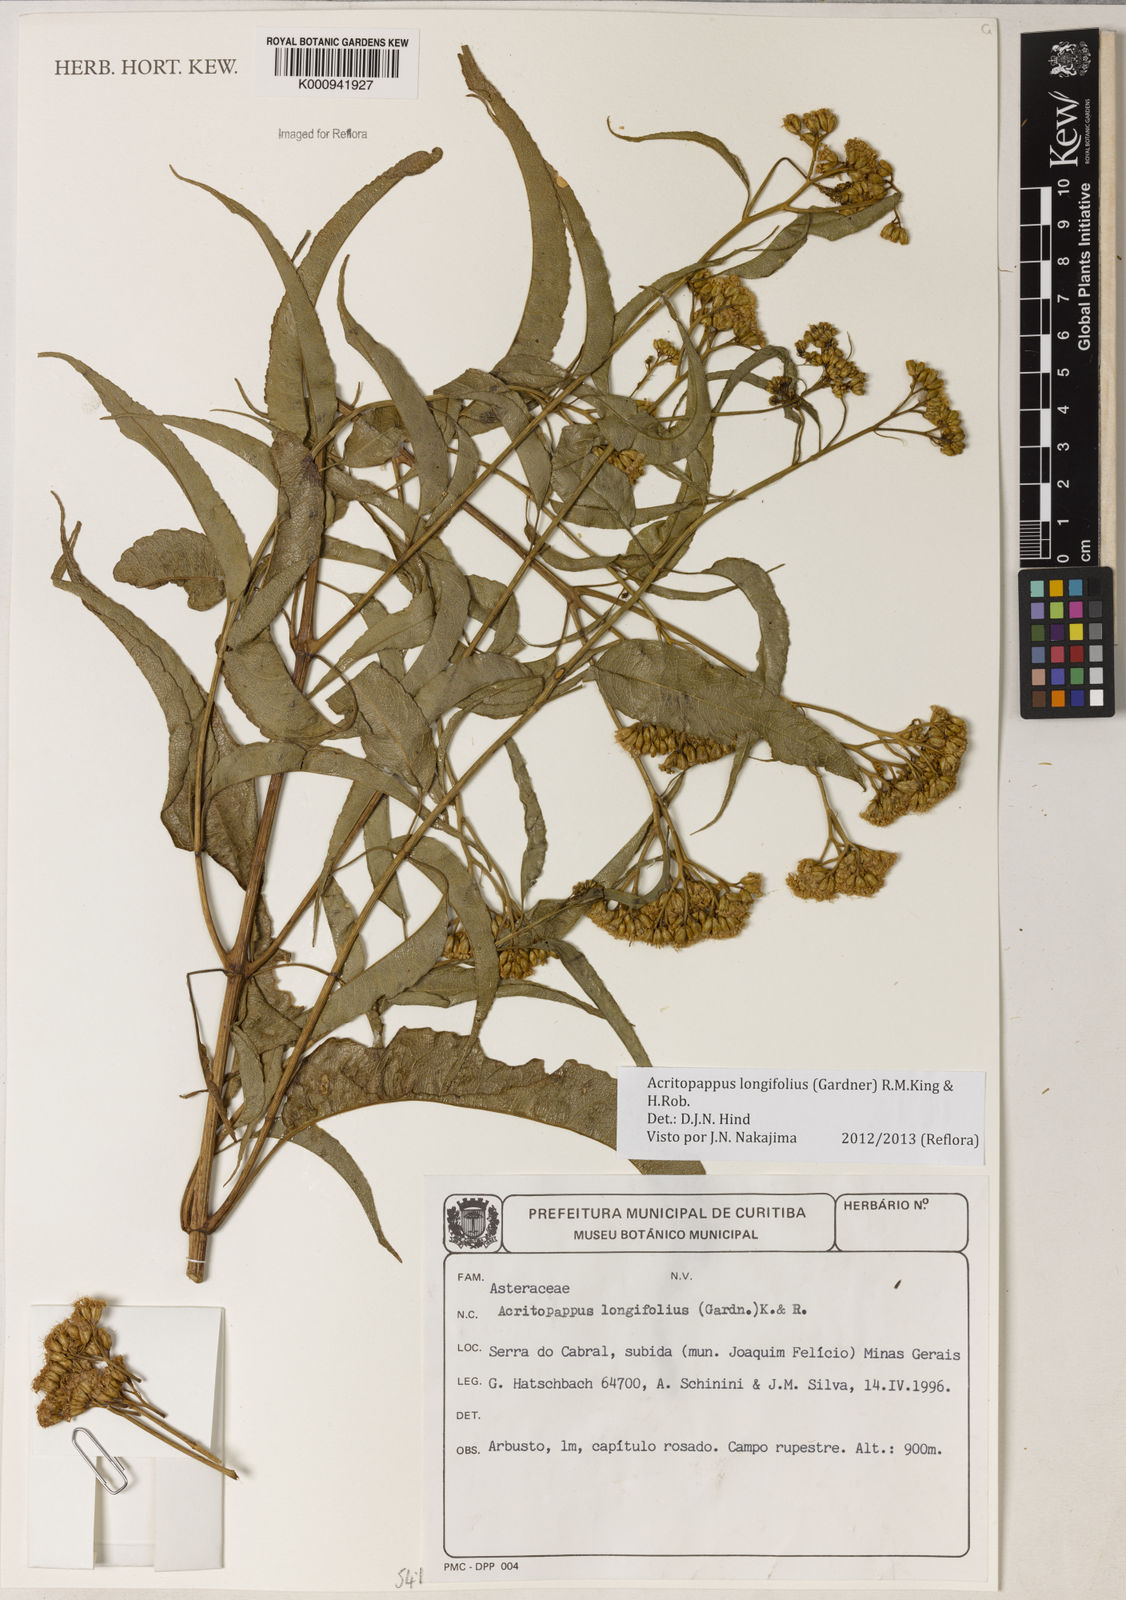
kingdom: Plantae
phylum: Tracheophyta
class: Magnoliopsida
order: Asterales
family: Asteraceae
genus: Acritopappus
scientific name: Acritopappus longifolius
